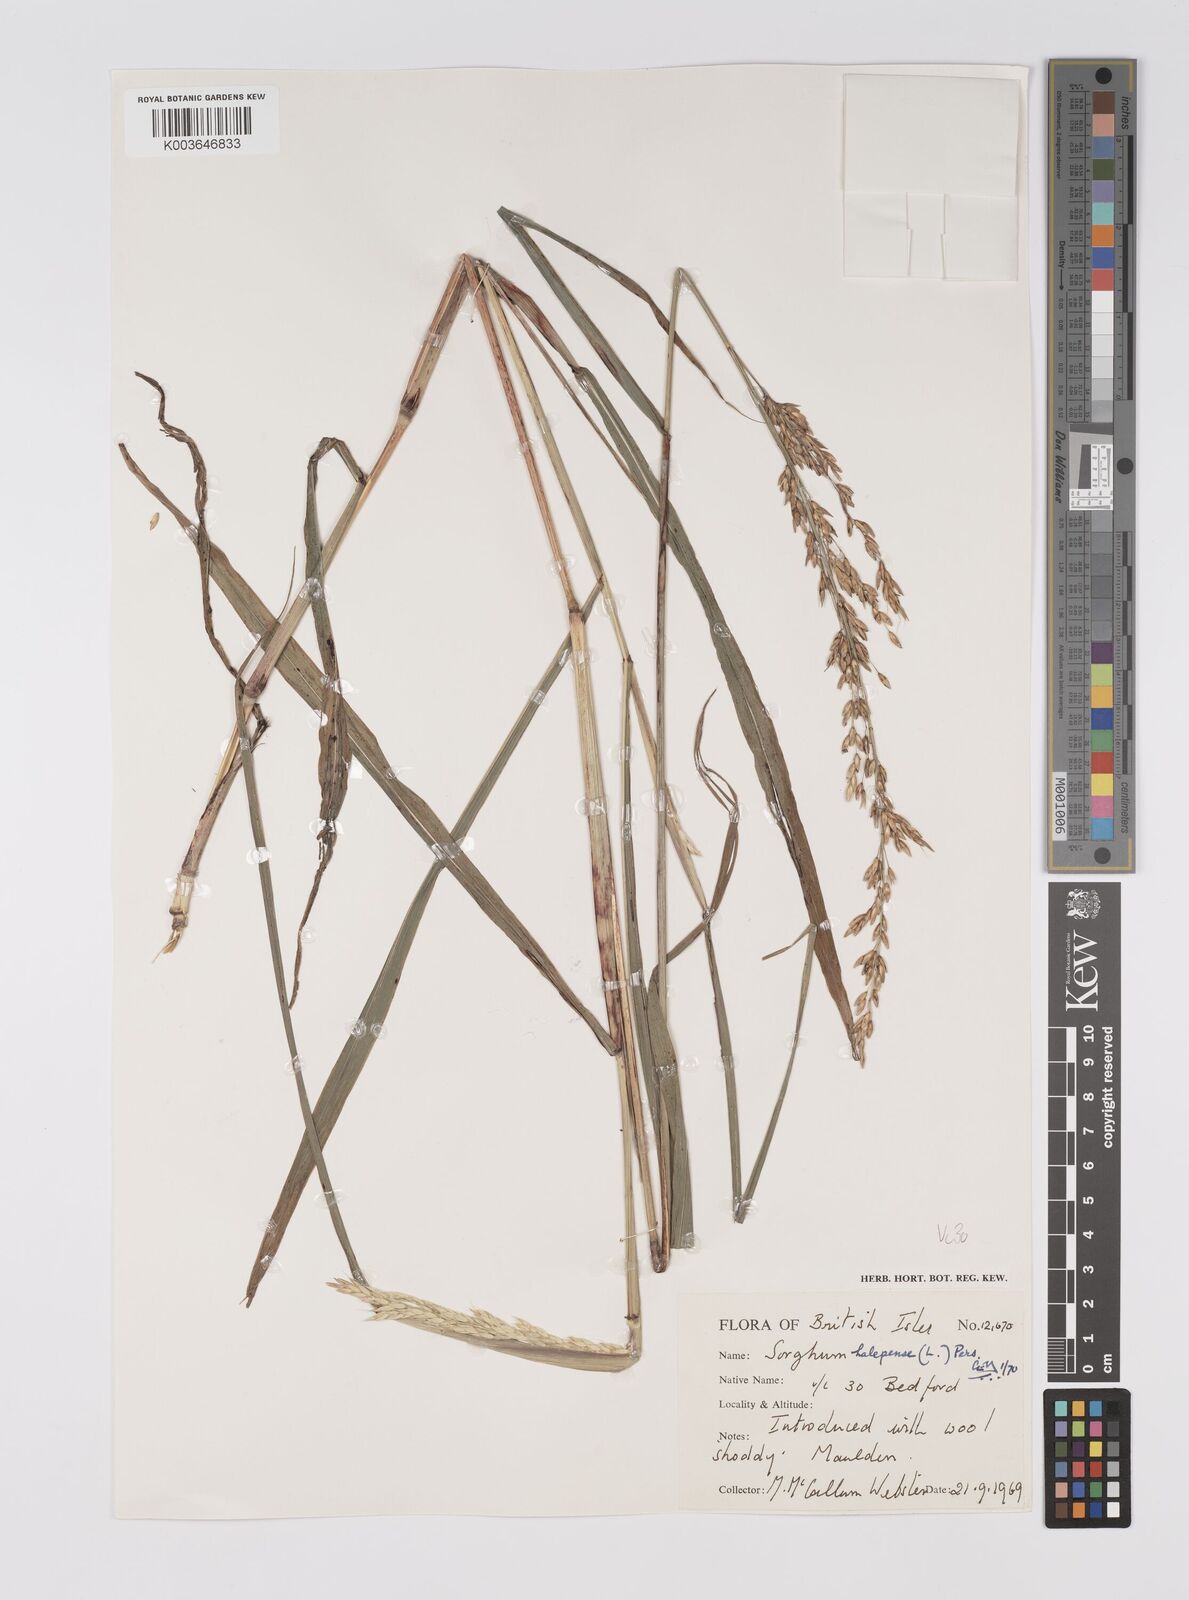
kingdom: Plantae
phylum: Tracheophyta
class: Liliopsida
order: Poales
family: Poaceae
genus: Sorghum
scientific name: Sorghum halepense
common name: Johnson-grass
